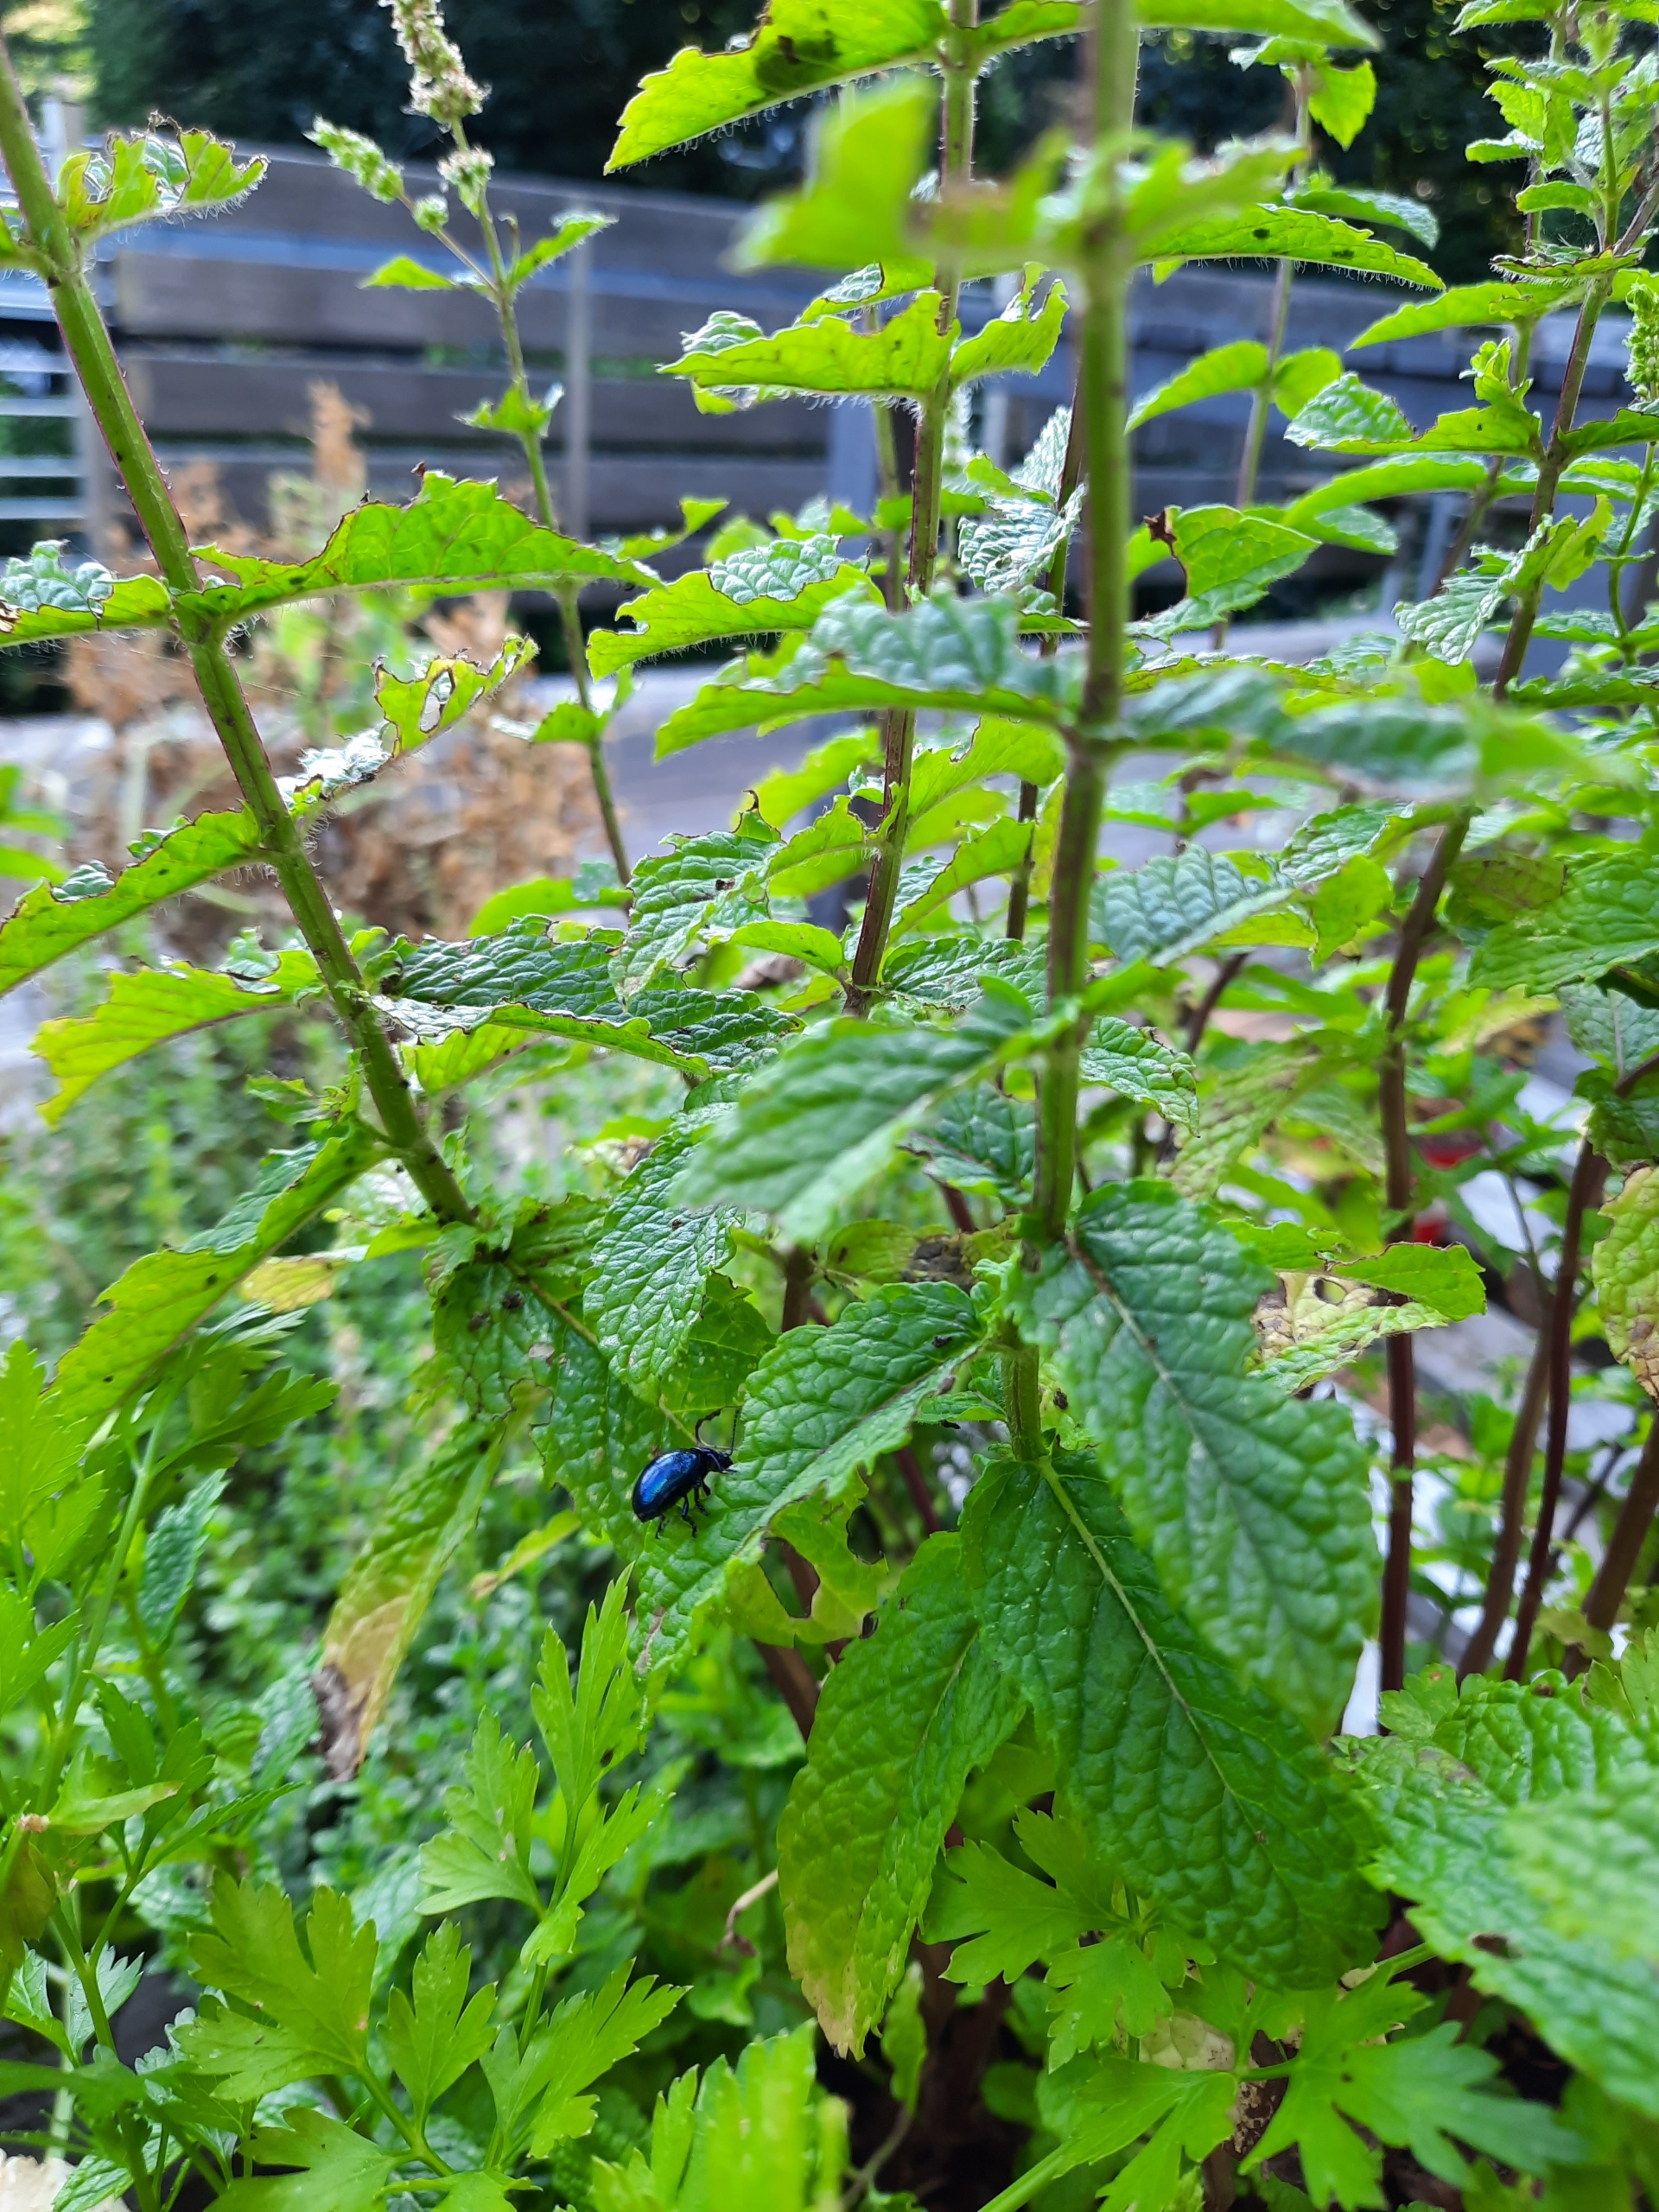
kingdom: Animalia
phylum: Arthropoda
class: Insecta
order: Coleoptera
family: Chrysomelidae
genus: Chrysolina
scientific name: Chrysolina coerulans
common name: Blå mynteguldbille
